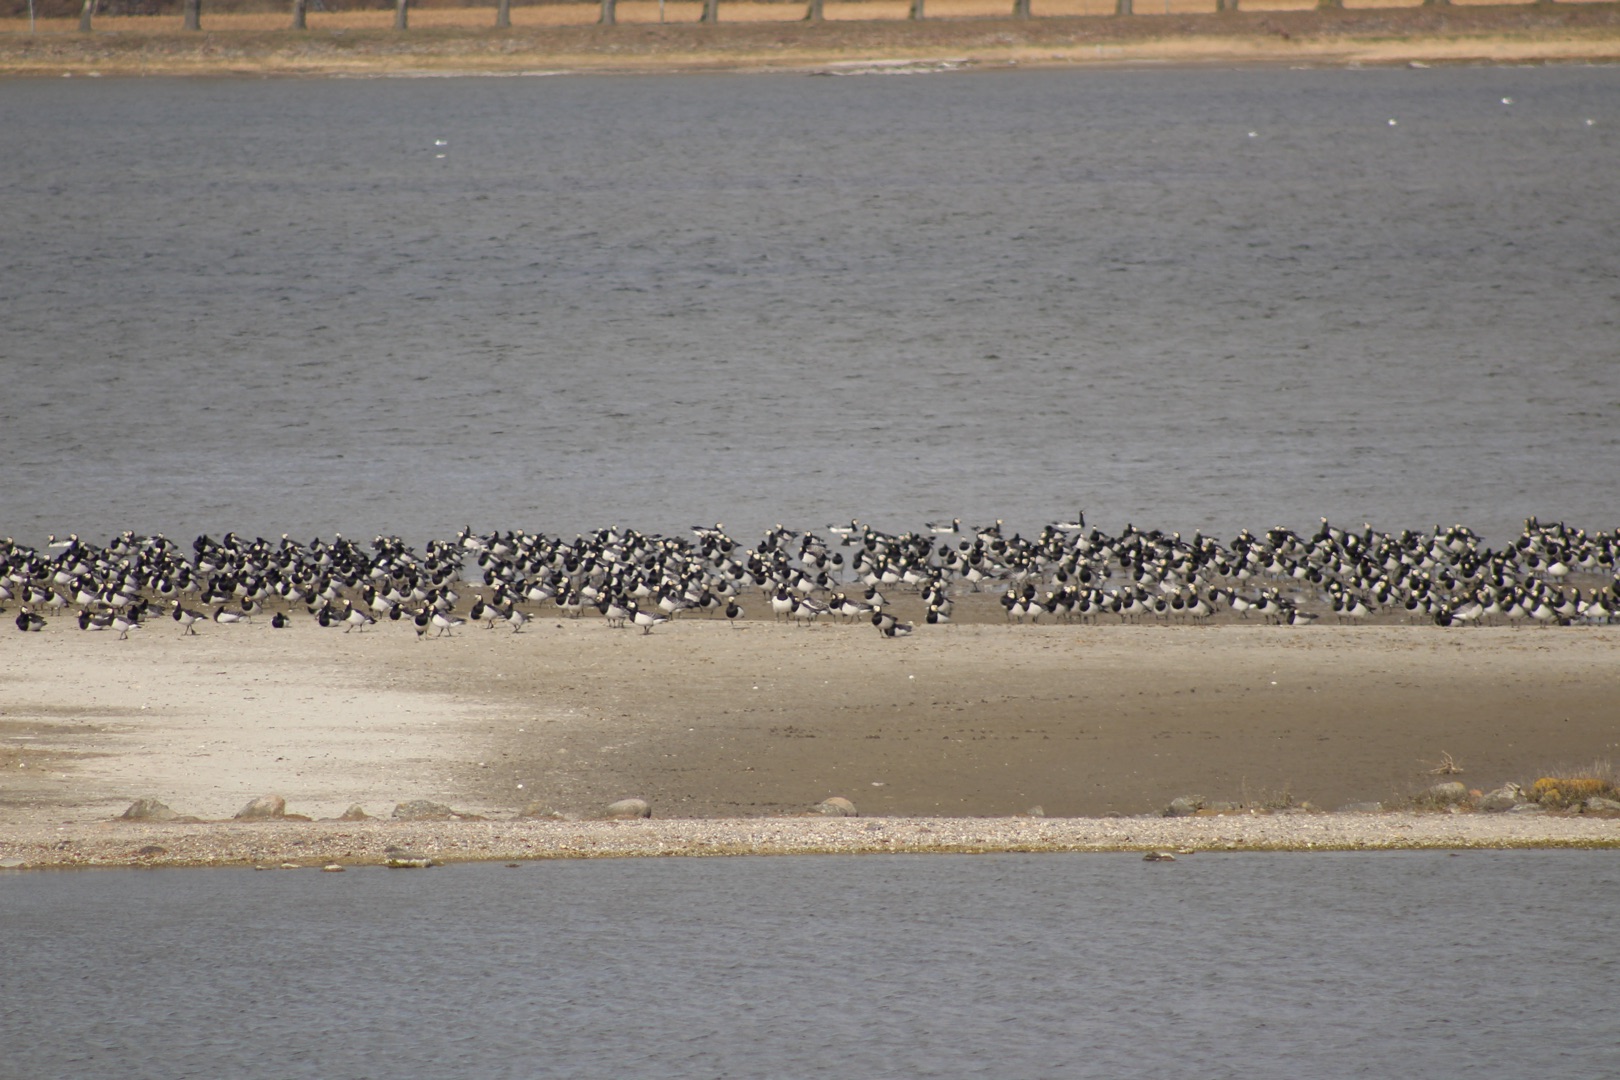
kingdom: Animalia
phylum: Chordata
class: Aves
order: Anseriformes
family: Anatidae
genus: Branta
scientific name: Branta leucopsis
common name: Bramgås
